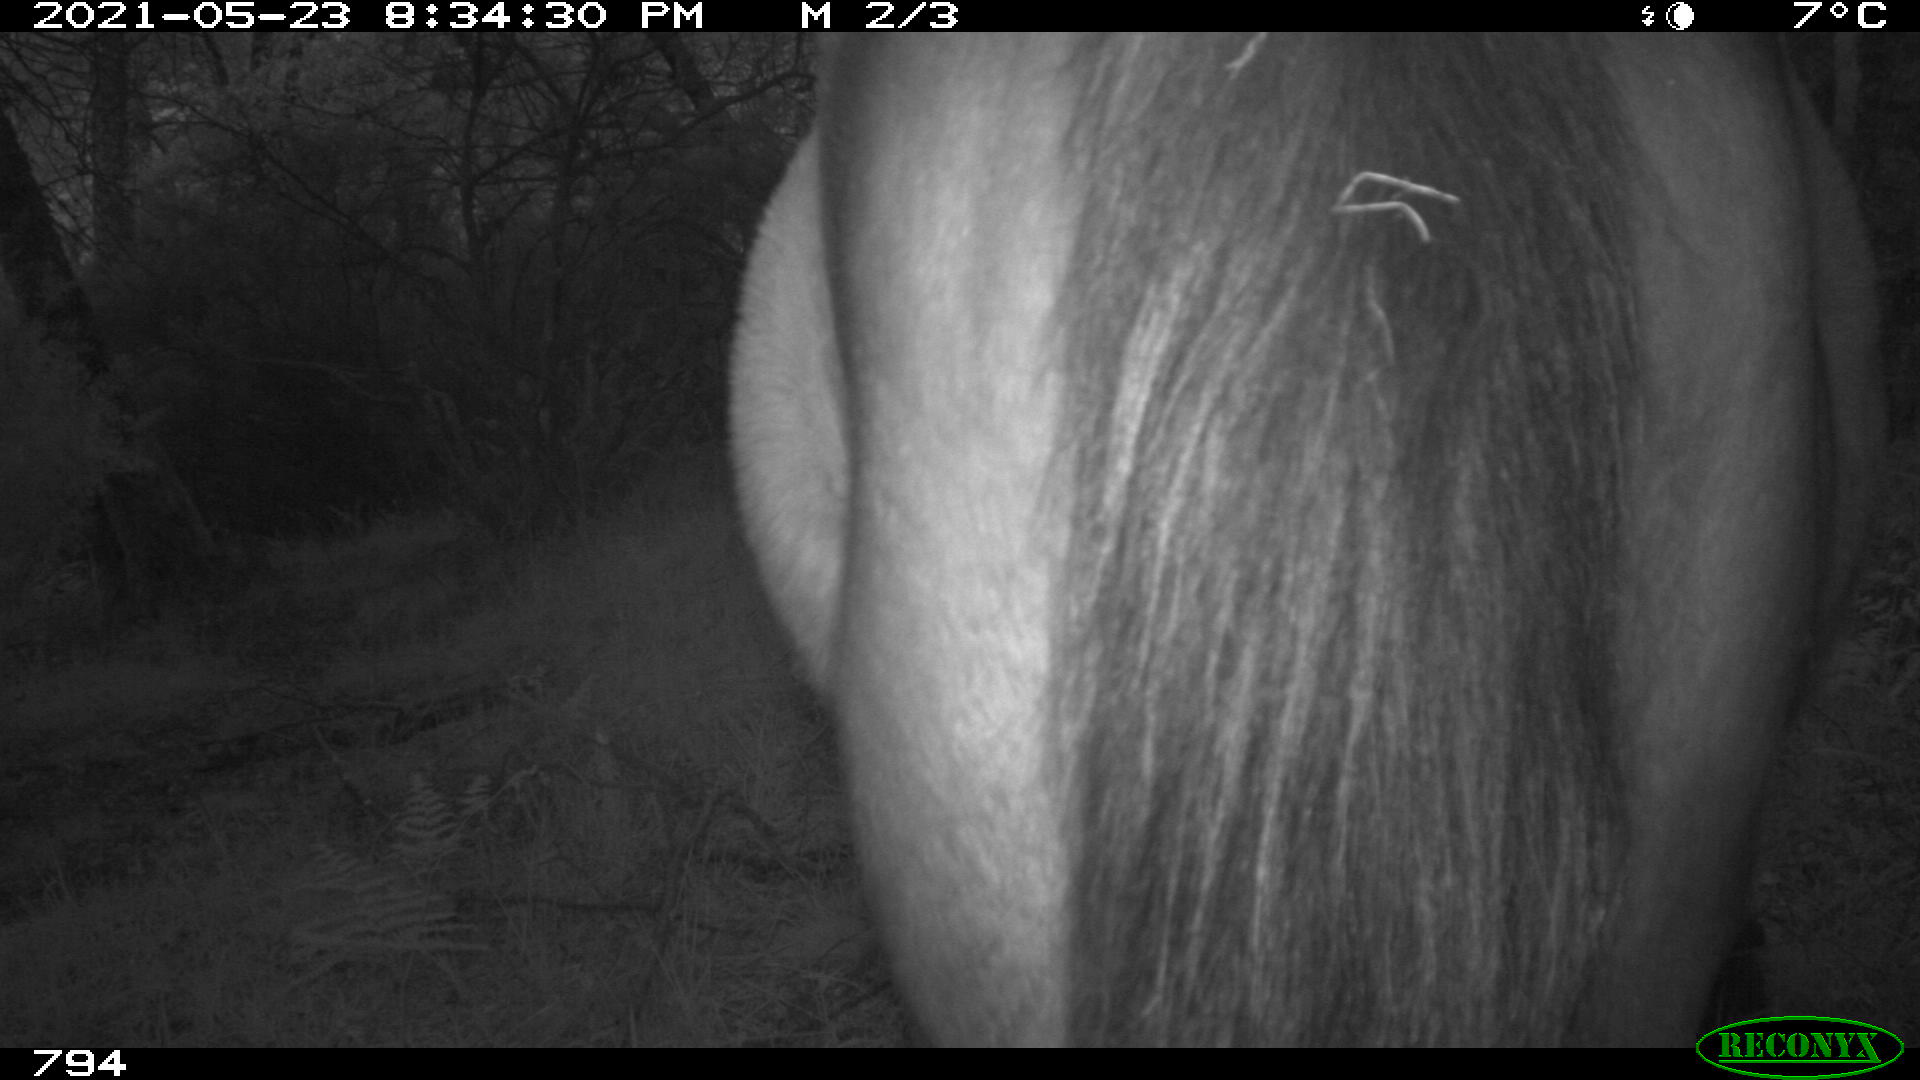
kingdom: Animalia
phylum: Chordata
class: Mammalia
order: Perissodactyla
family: Equidae
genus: Equus
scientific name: Equus caballus
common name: Horse
